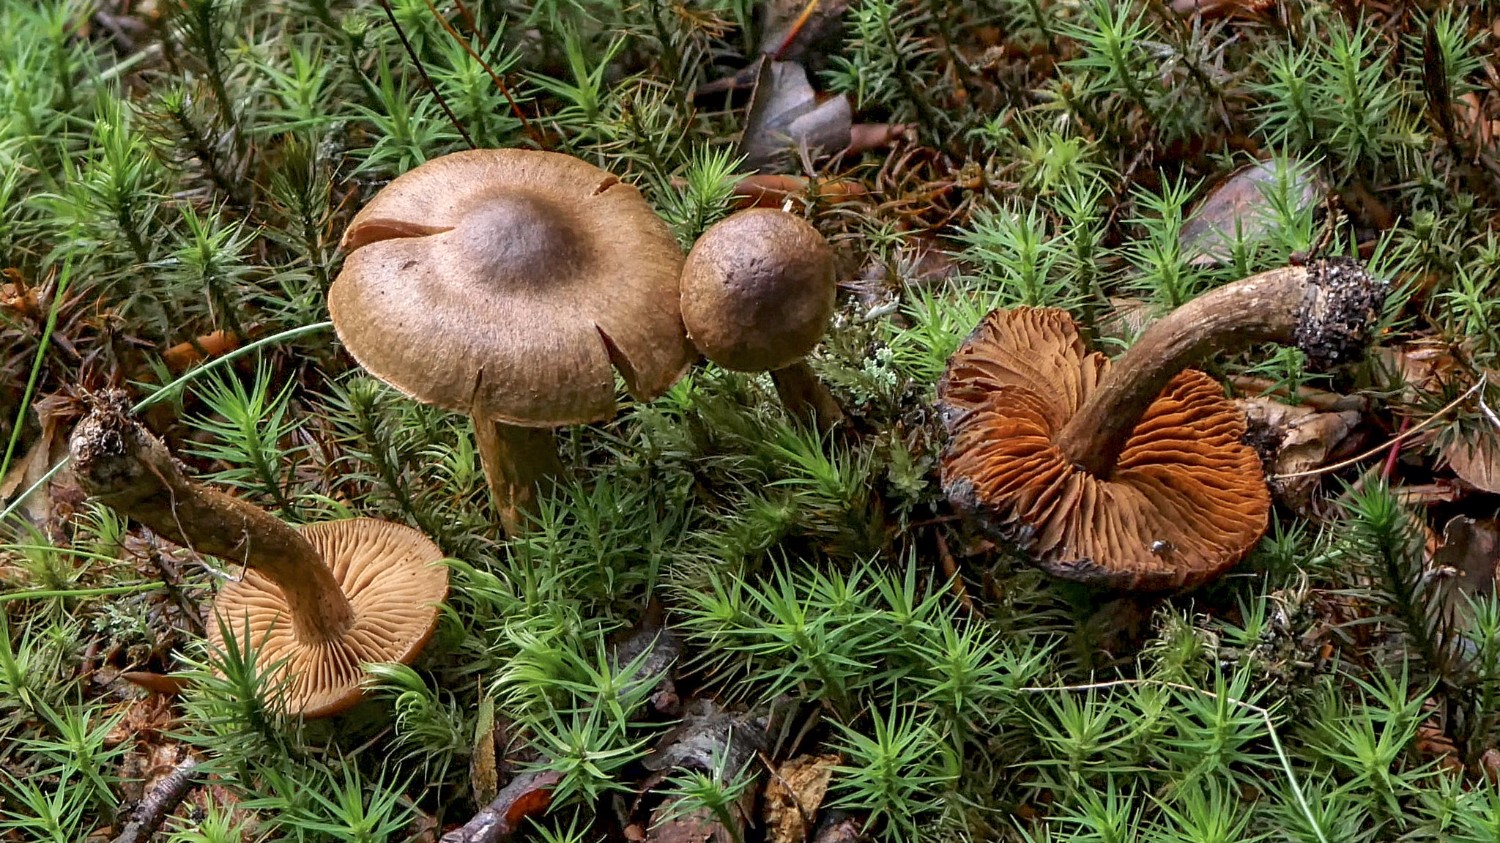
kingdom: Fungi
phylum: Basidiomycota
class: Agaricomycetes
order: Agaricales
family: Cortinariaceae
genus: Cortinarius
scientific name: Cortinarius
